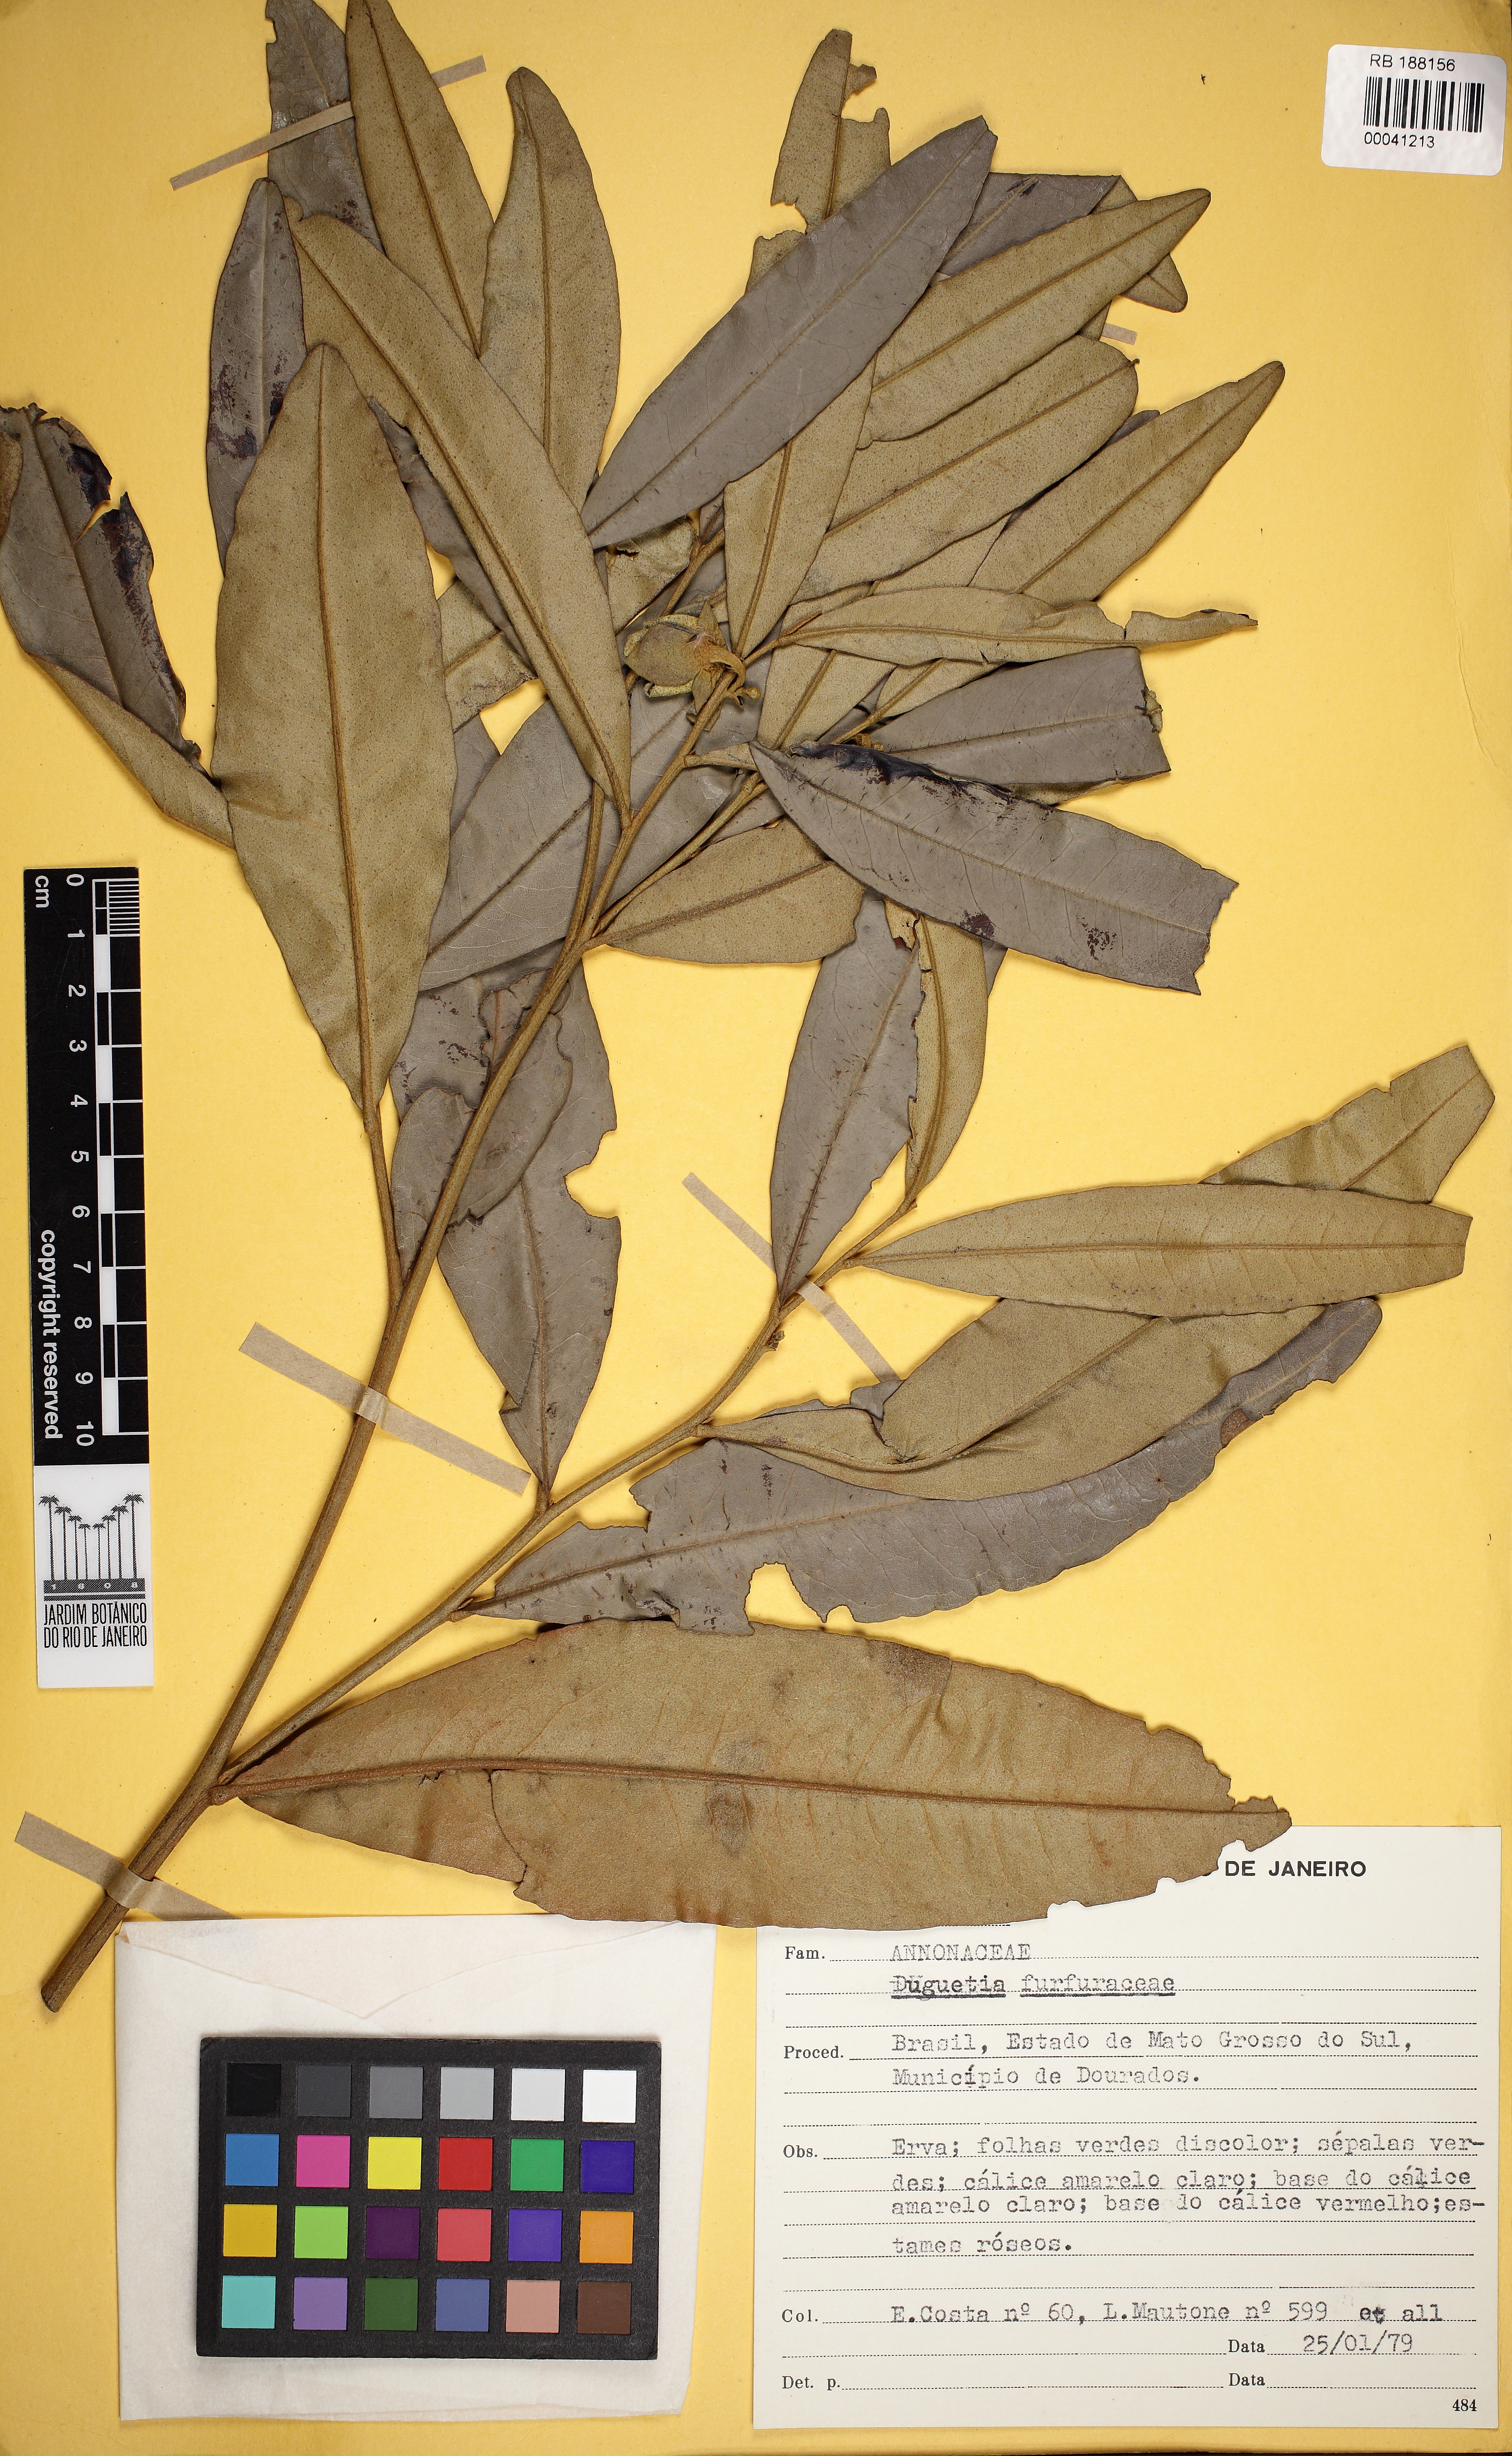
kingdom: Plantae
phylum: Tracheophyta
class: Magnoliopsida
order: Magnoliales
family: Annonaceae
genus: Duguetia
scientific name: Duguetia furfuracea
